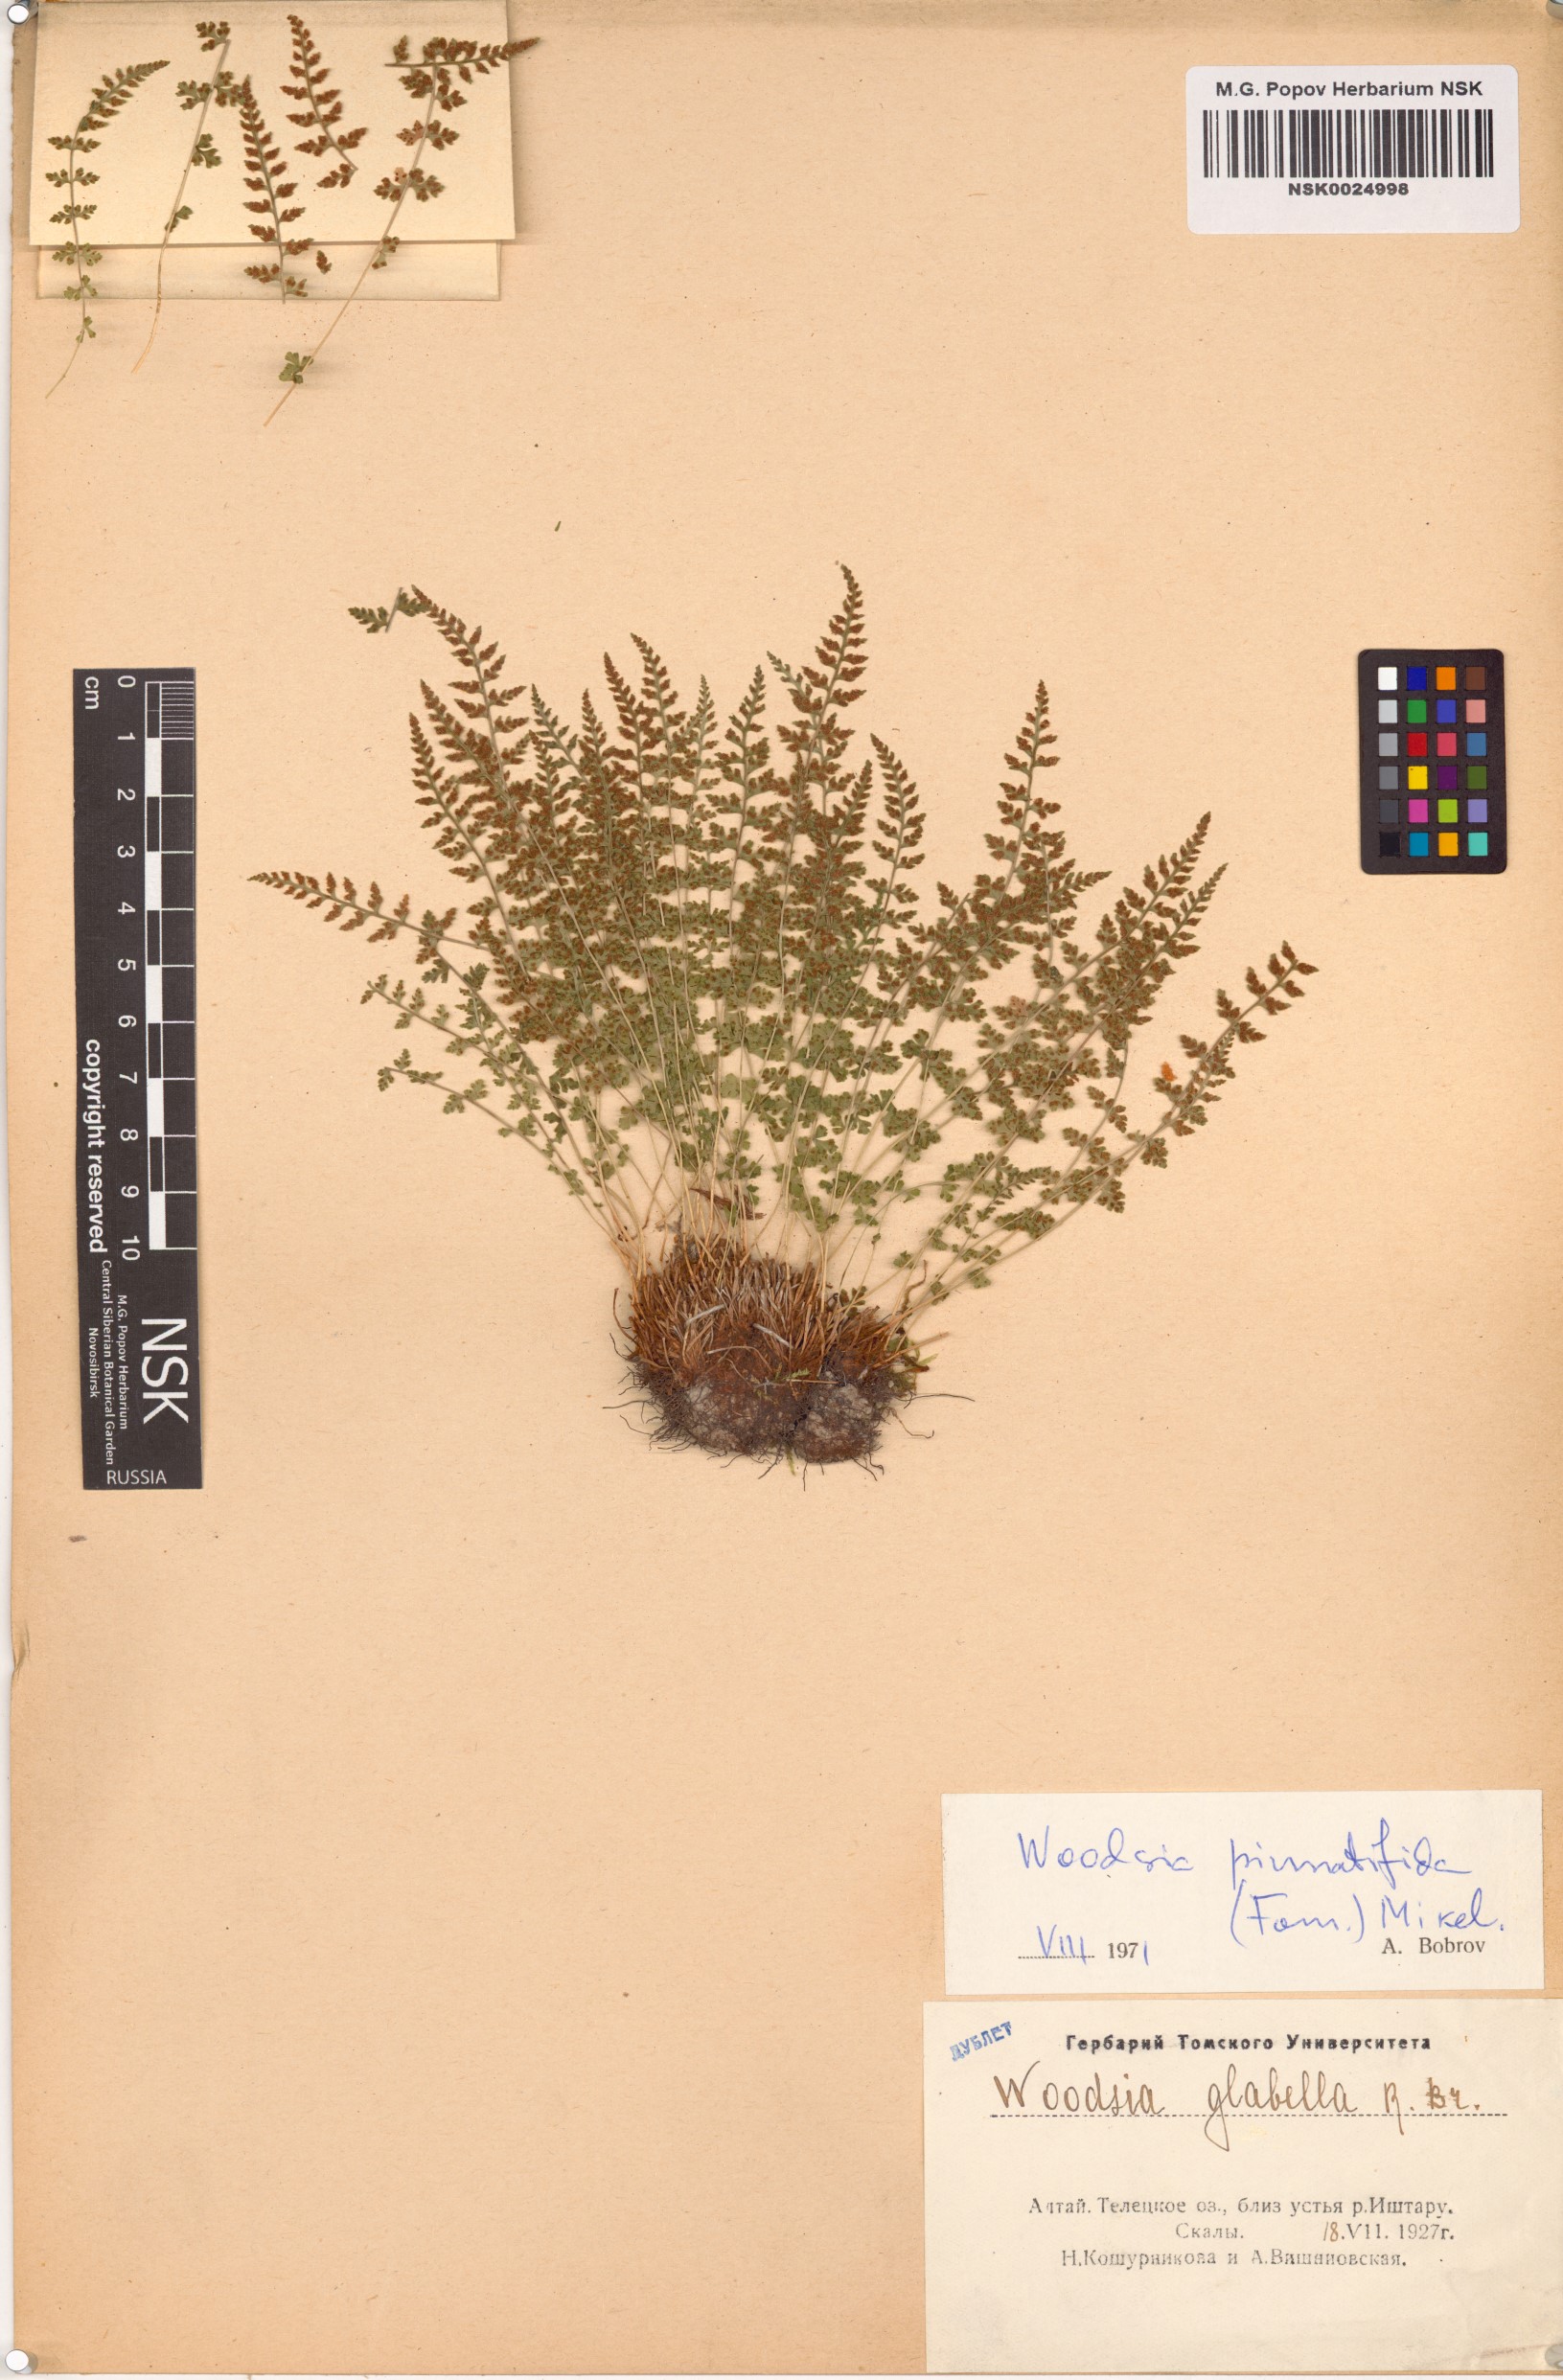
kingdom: Plantae
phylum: Tracheophyta
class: Polypodiopsida
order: Polypodiales
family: Woodsiaceae
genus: Woodsia
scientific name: Woodsia pulchella
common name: Graceful woodsia
